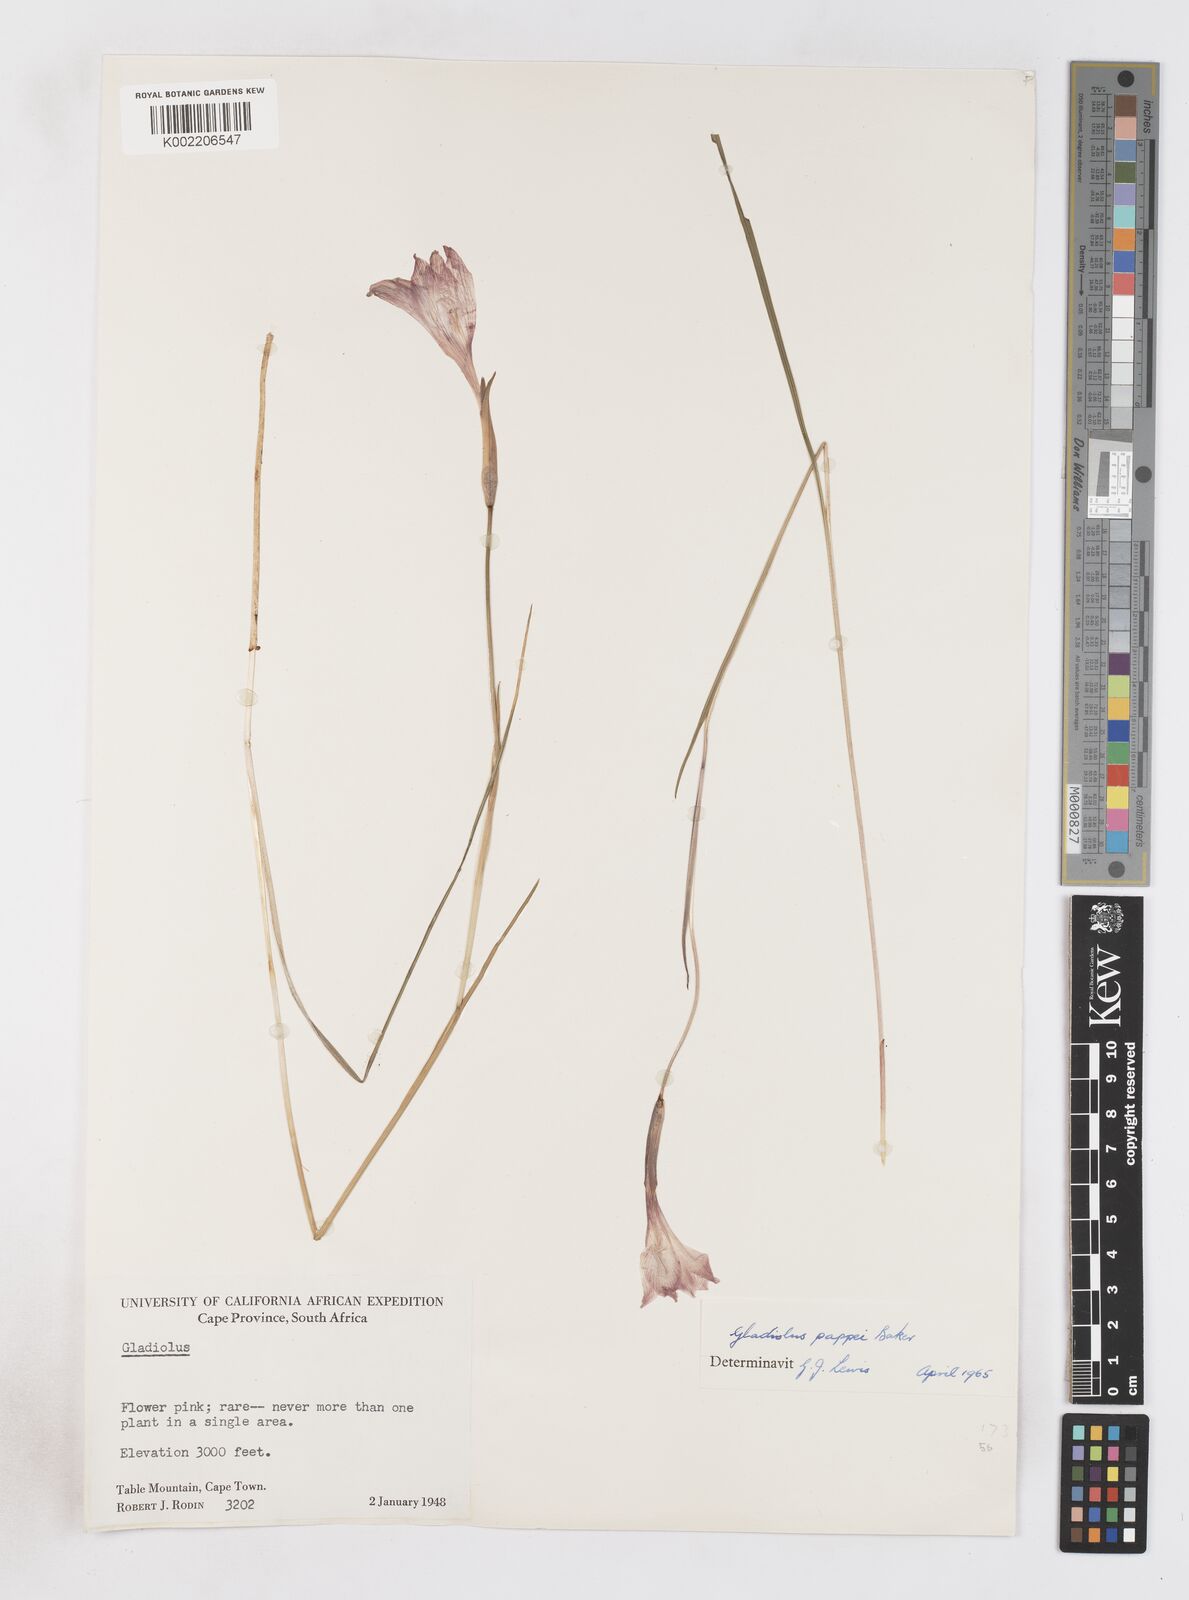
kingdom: Plantae
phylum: Tracheophyta
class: Liliopsida
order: Asparagales
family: Iridaceae
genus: Gladiolus
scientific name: Gladiolus pappei
